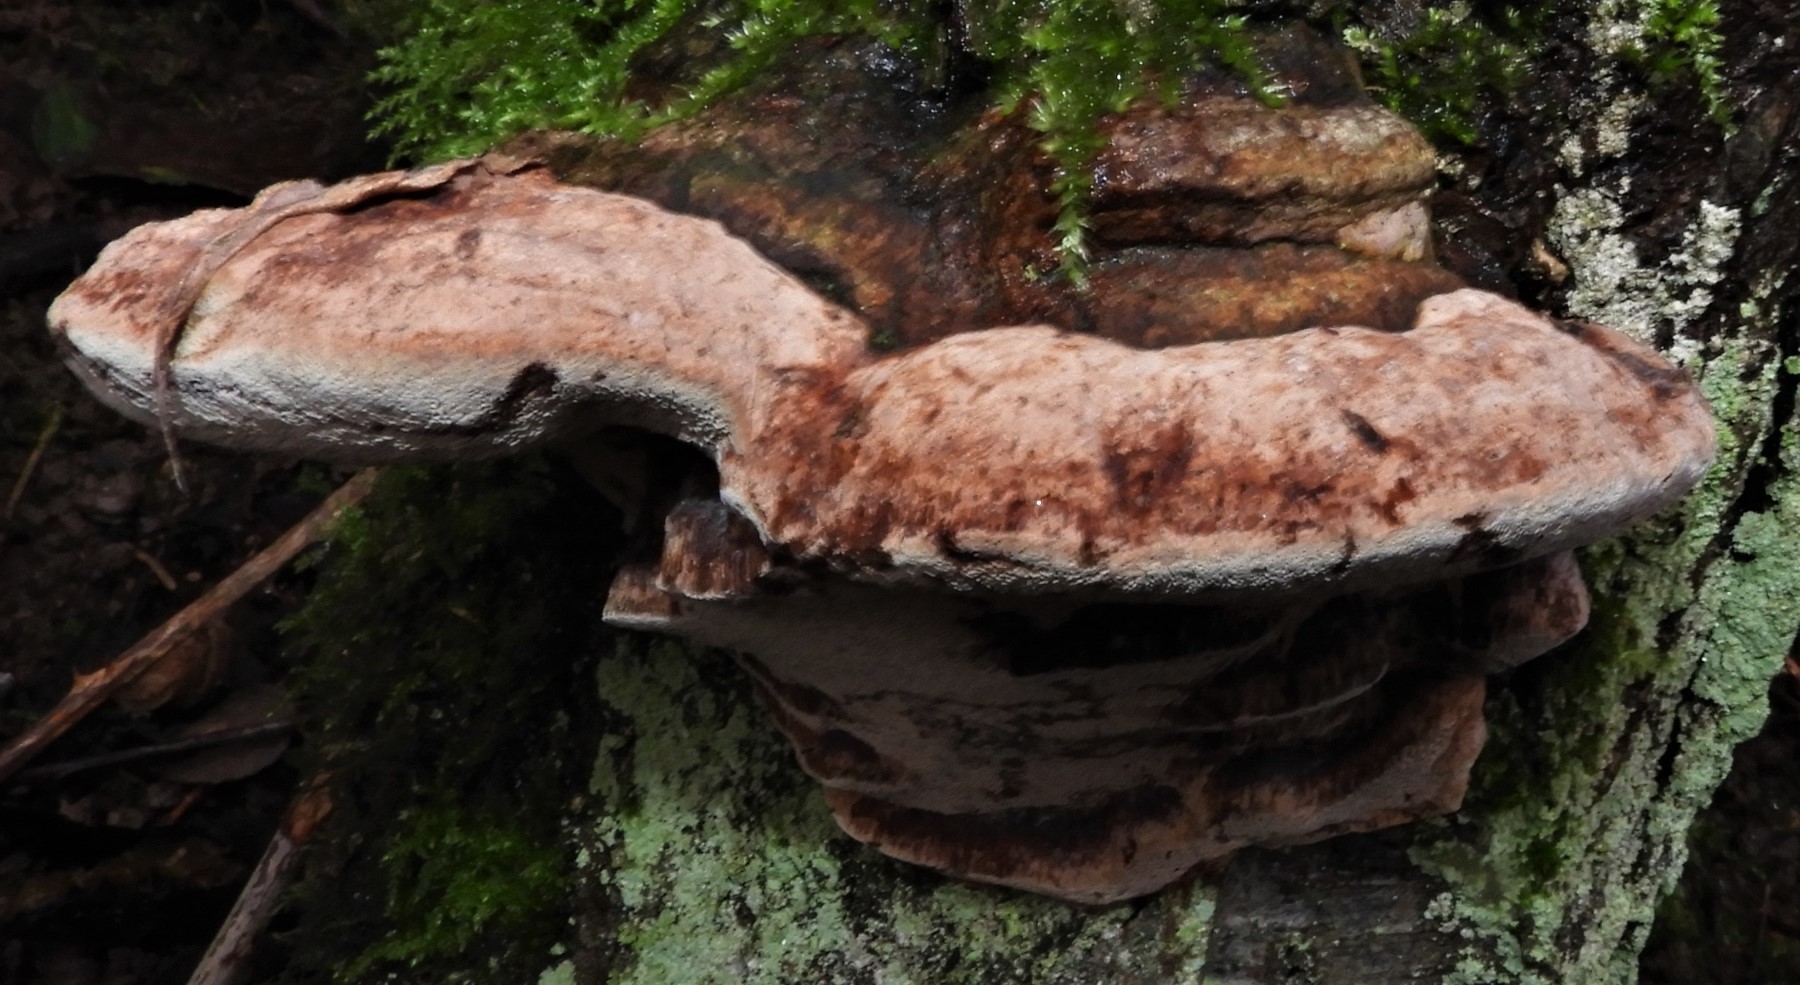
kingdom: Fungi
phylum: Basidiomycota
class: Agaricomycetes
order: Hymenochaetales
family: Hymenochaetaceae
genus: Phellinus
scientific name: Phellinus pomaceus
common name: blomme-ildporesvamp
